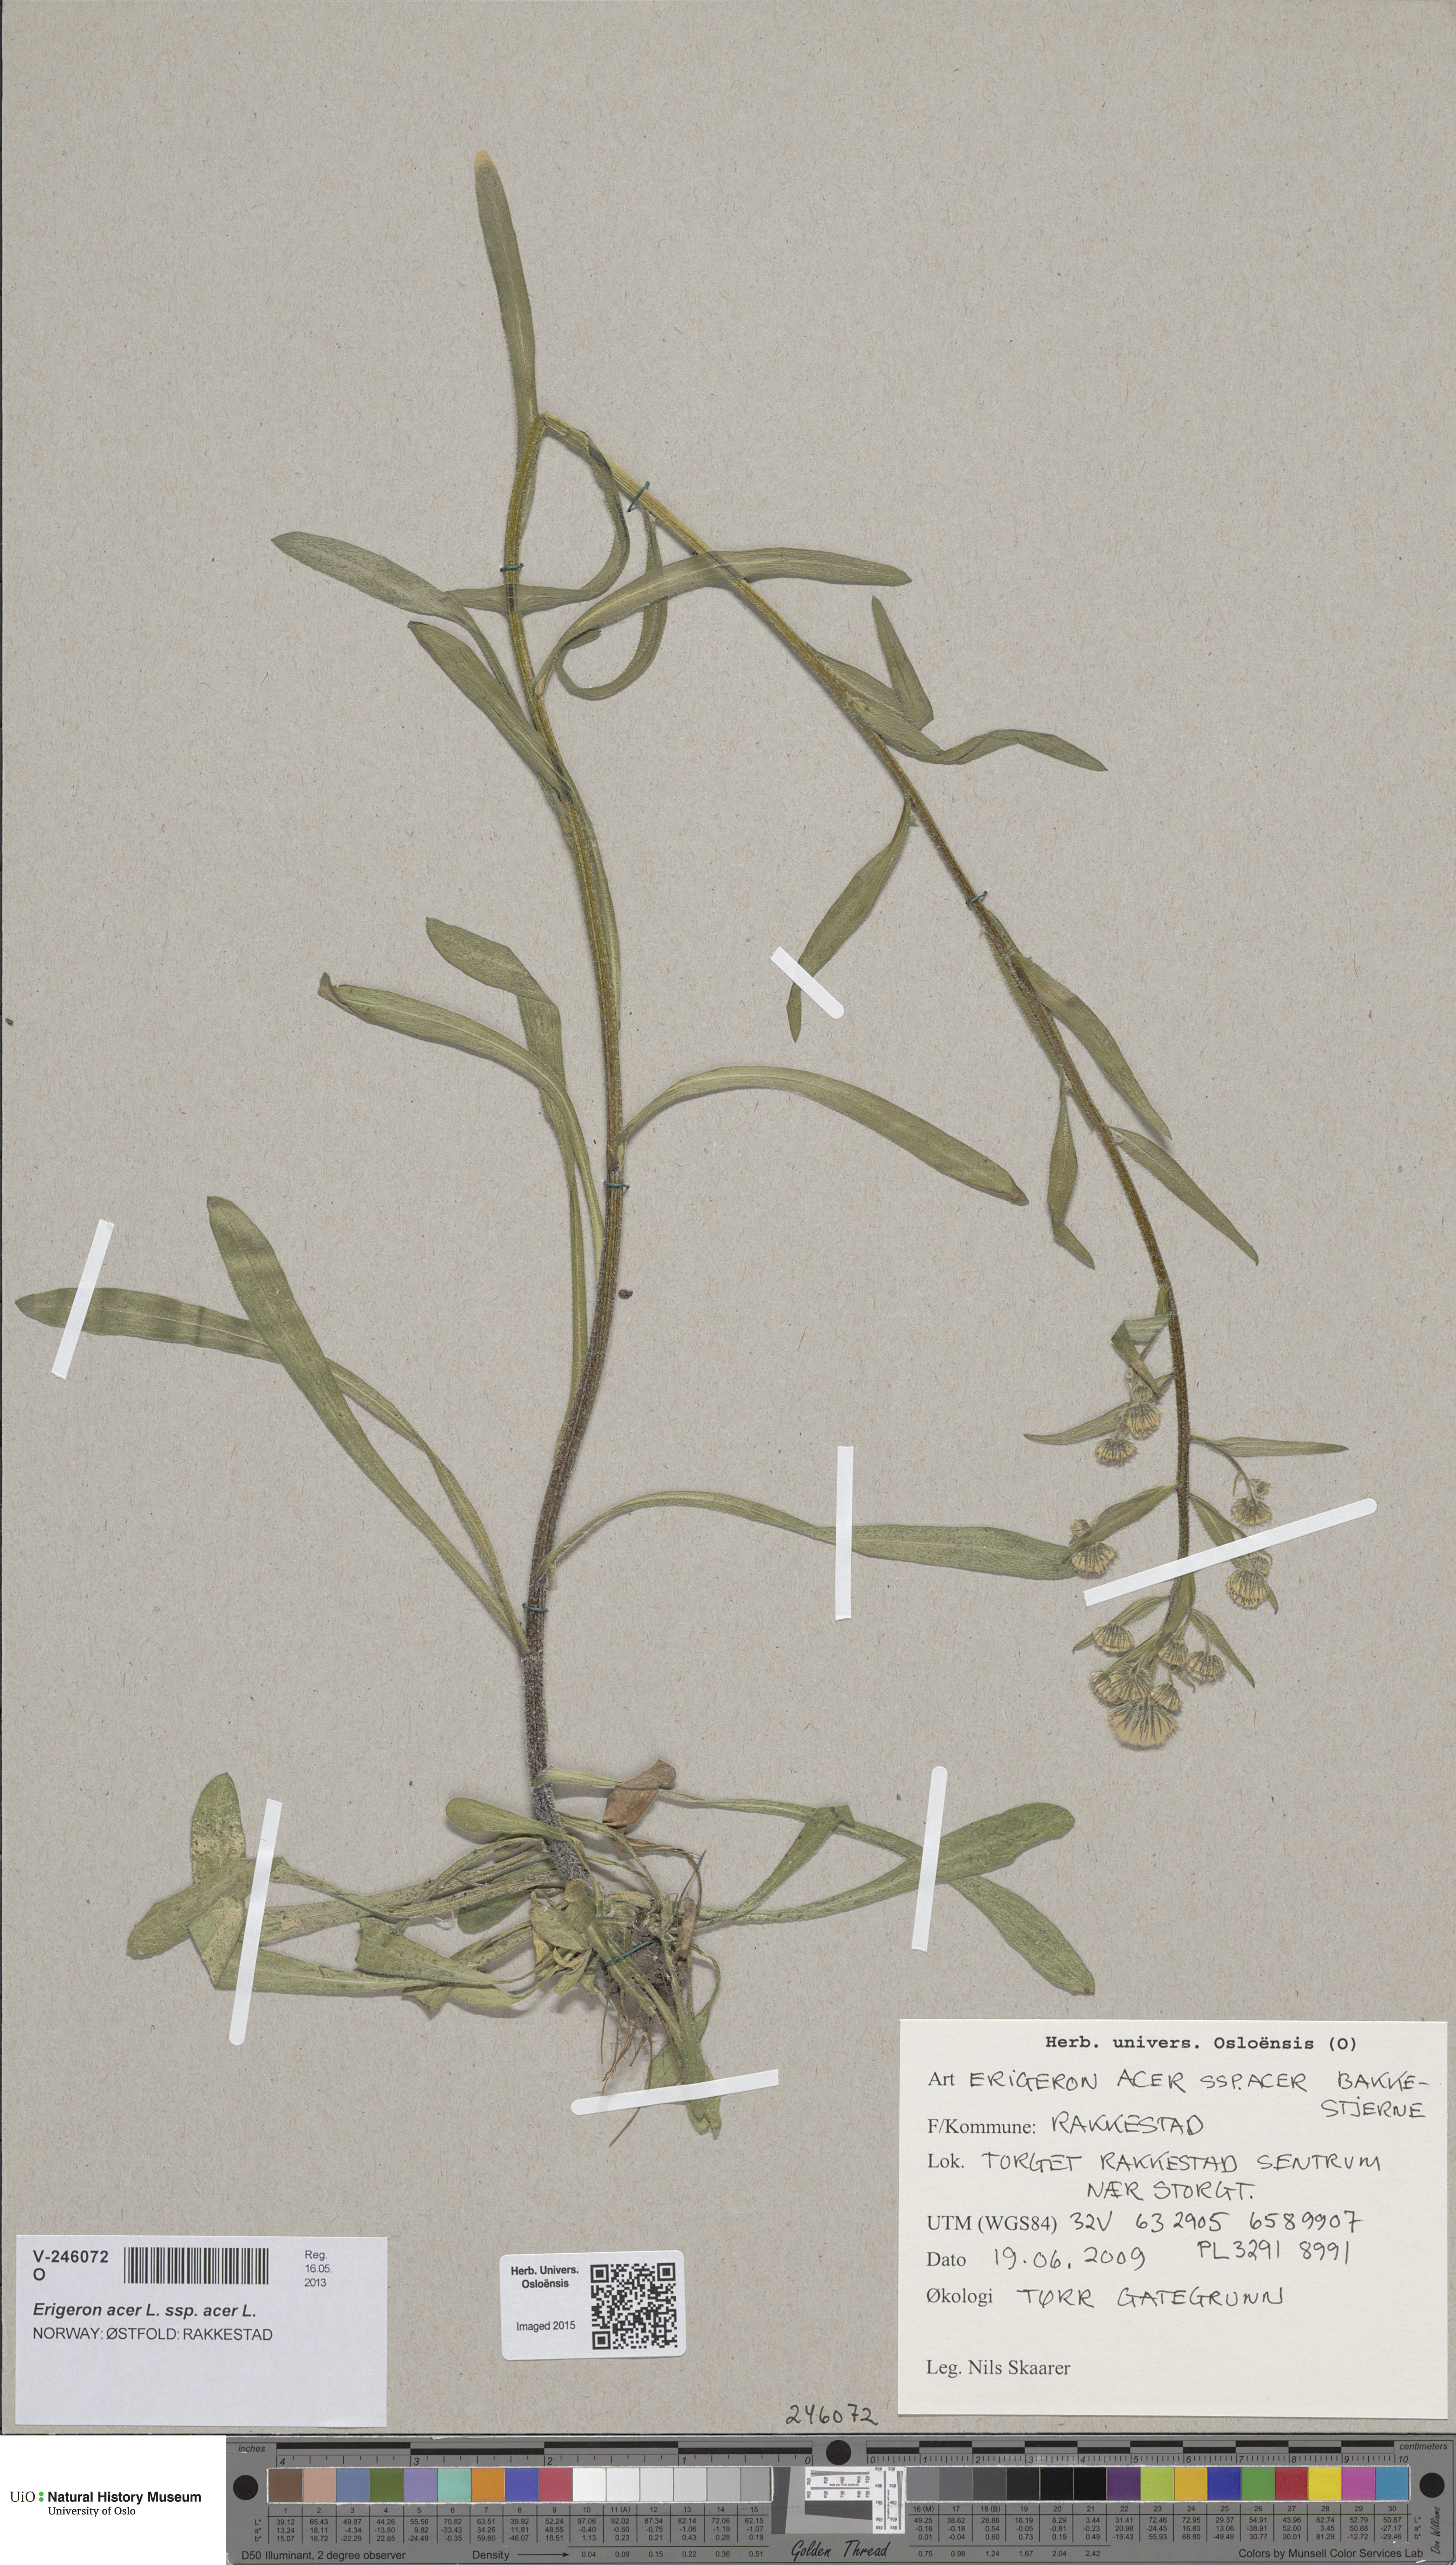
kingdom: Plantae
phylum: Tracheophyta
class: Magnoliopsida
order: Asterales
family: Asteraceae
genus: Erigeron
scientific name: Erigeron acris
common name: Blue fleabane
